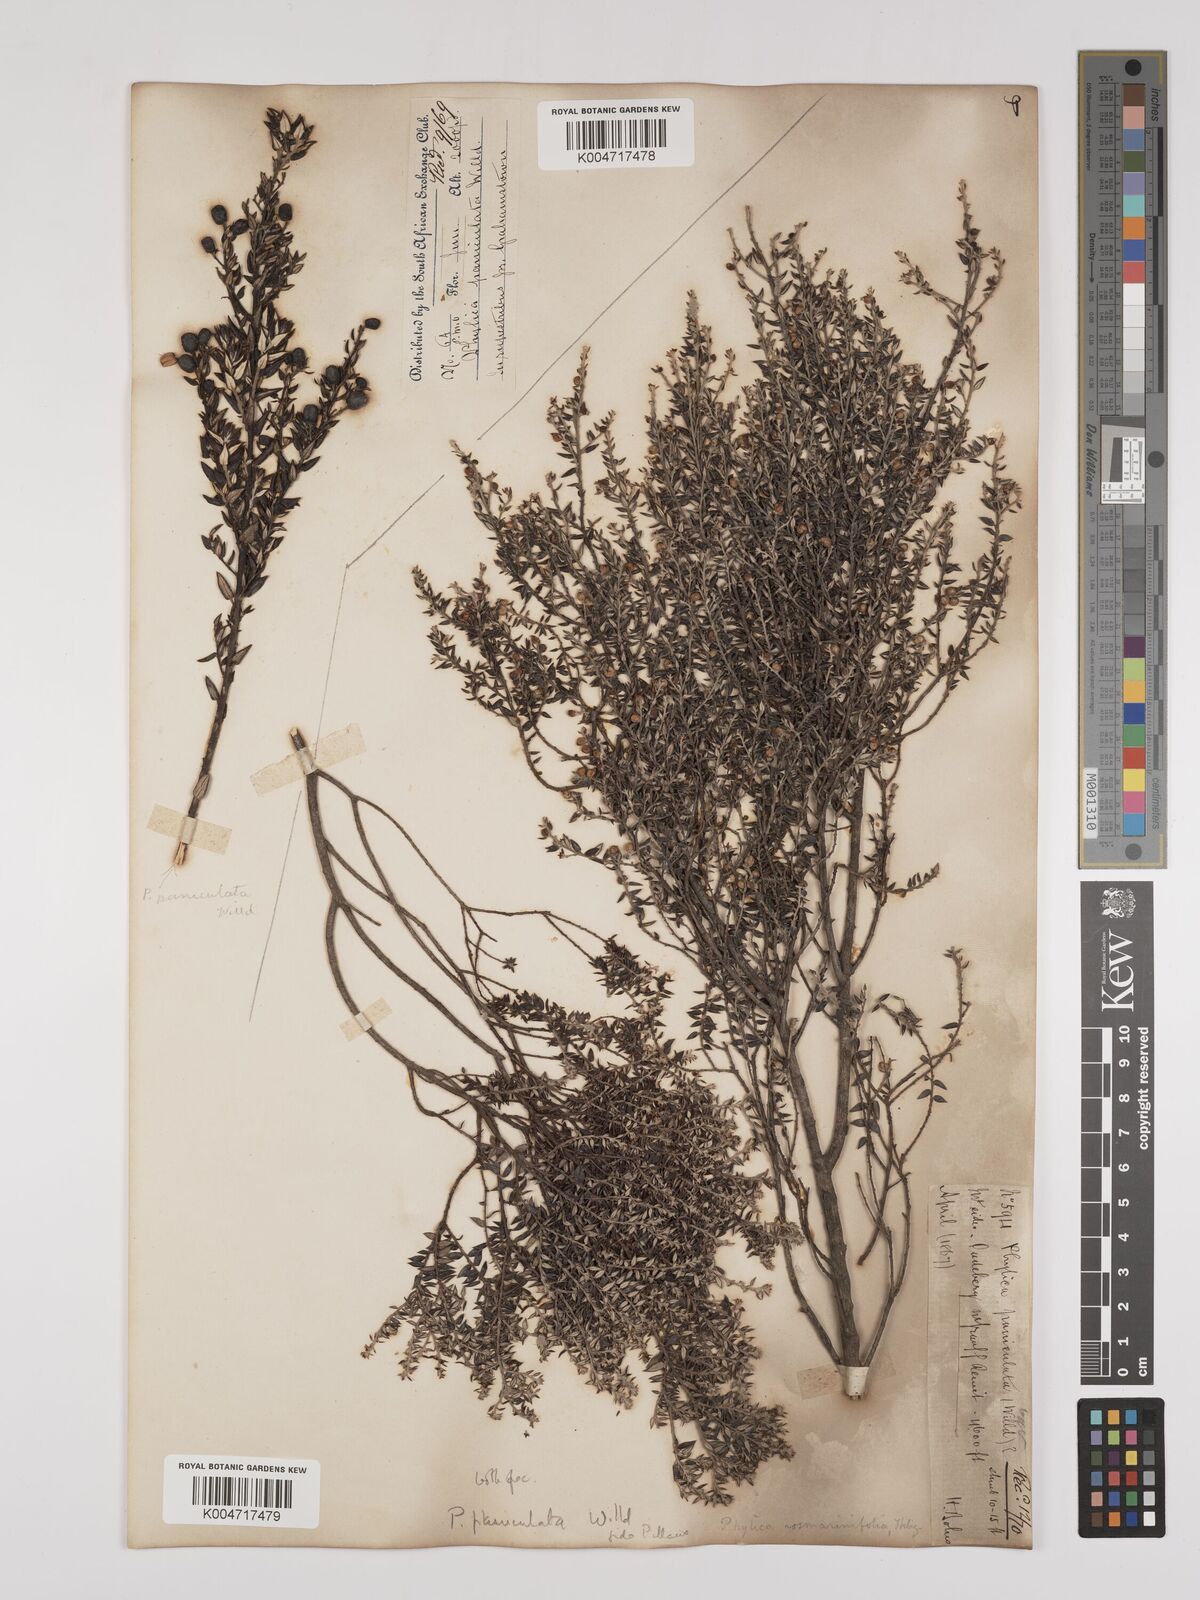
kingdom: Plantae
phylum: Tracheophyta
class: Magnoliopsida
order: Rosales
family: Rhamnaceae
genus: Phylica
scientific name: Phylica paniculata
